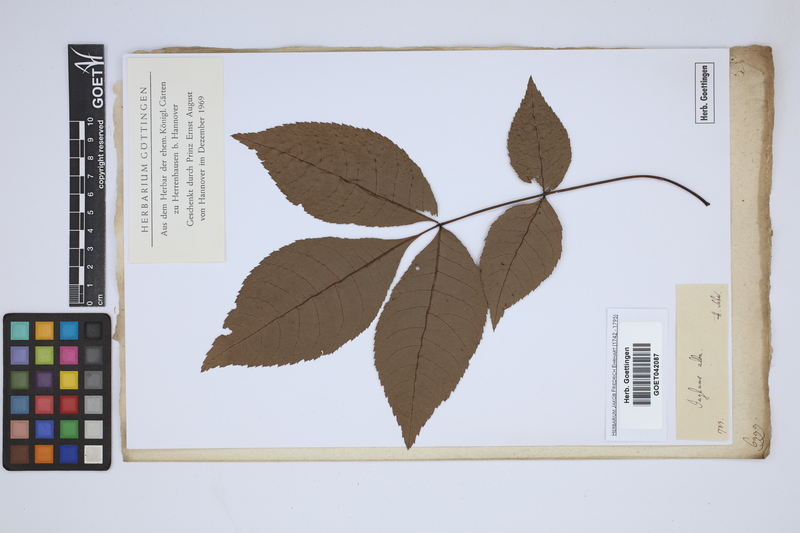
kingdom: Plantae
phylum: Tracheophyta
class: Magnoliopsida
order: Fagales
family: Juglandaceae
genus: Carya
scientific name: Carya alba
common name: Mockernut hickory
